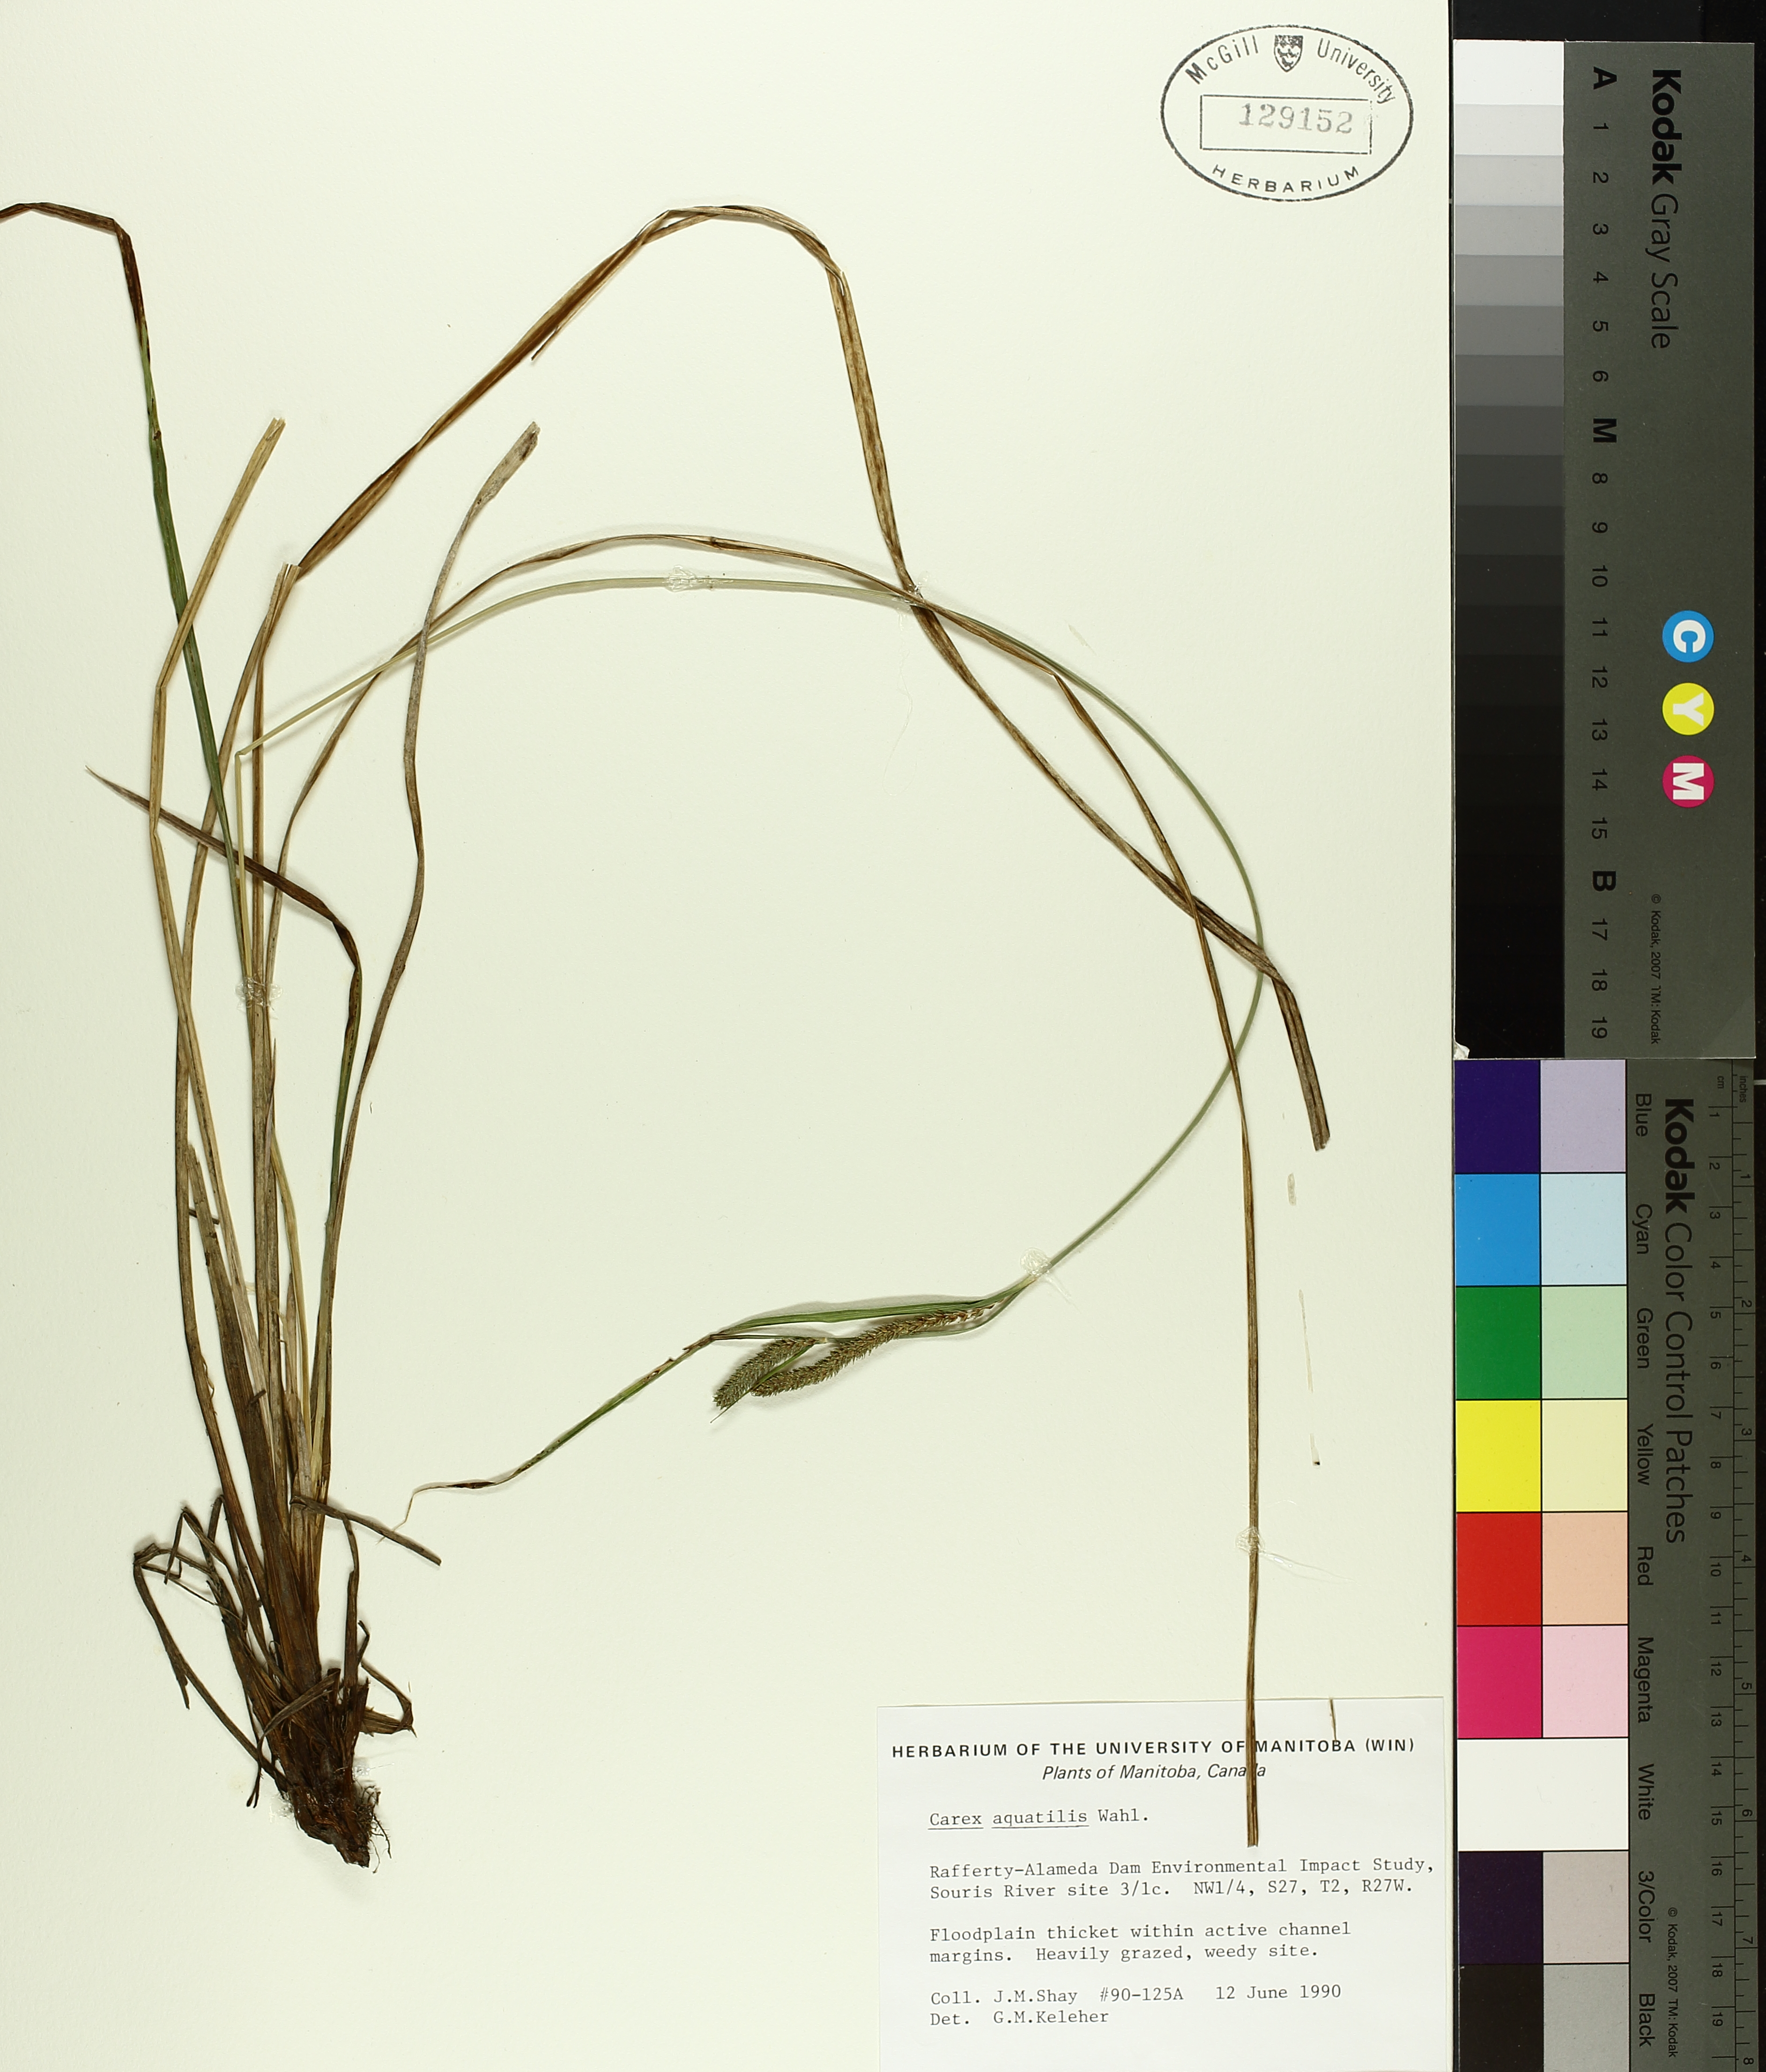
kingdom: Plantae
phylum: Tracheophyta
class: Liliopsida
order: Poales
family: Cyperaceae
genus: Carex
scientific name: Carex aquatilis
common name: Water sedge
